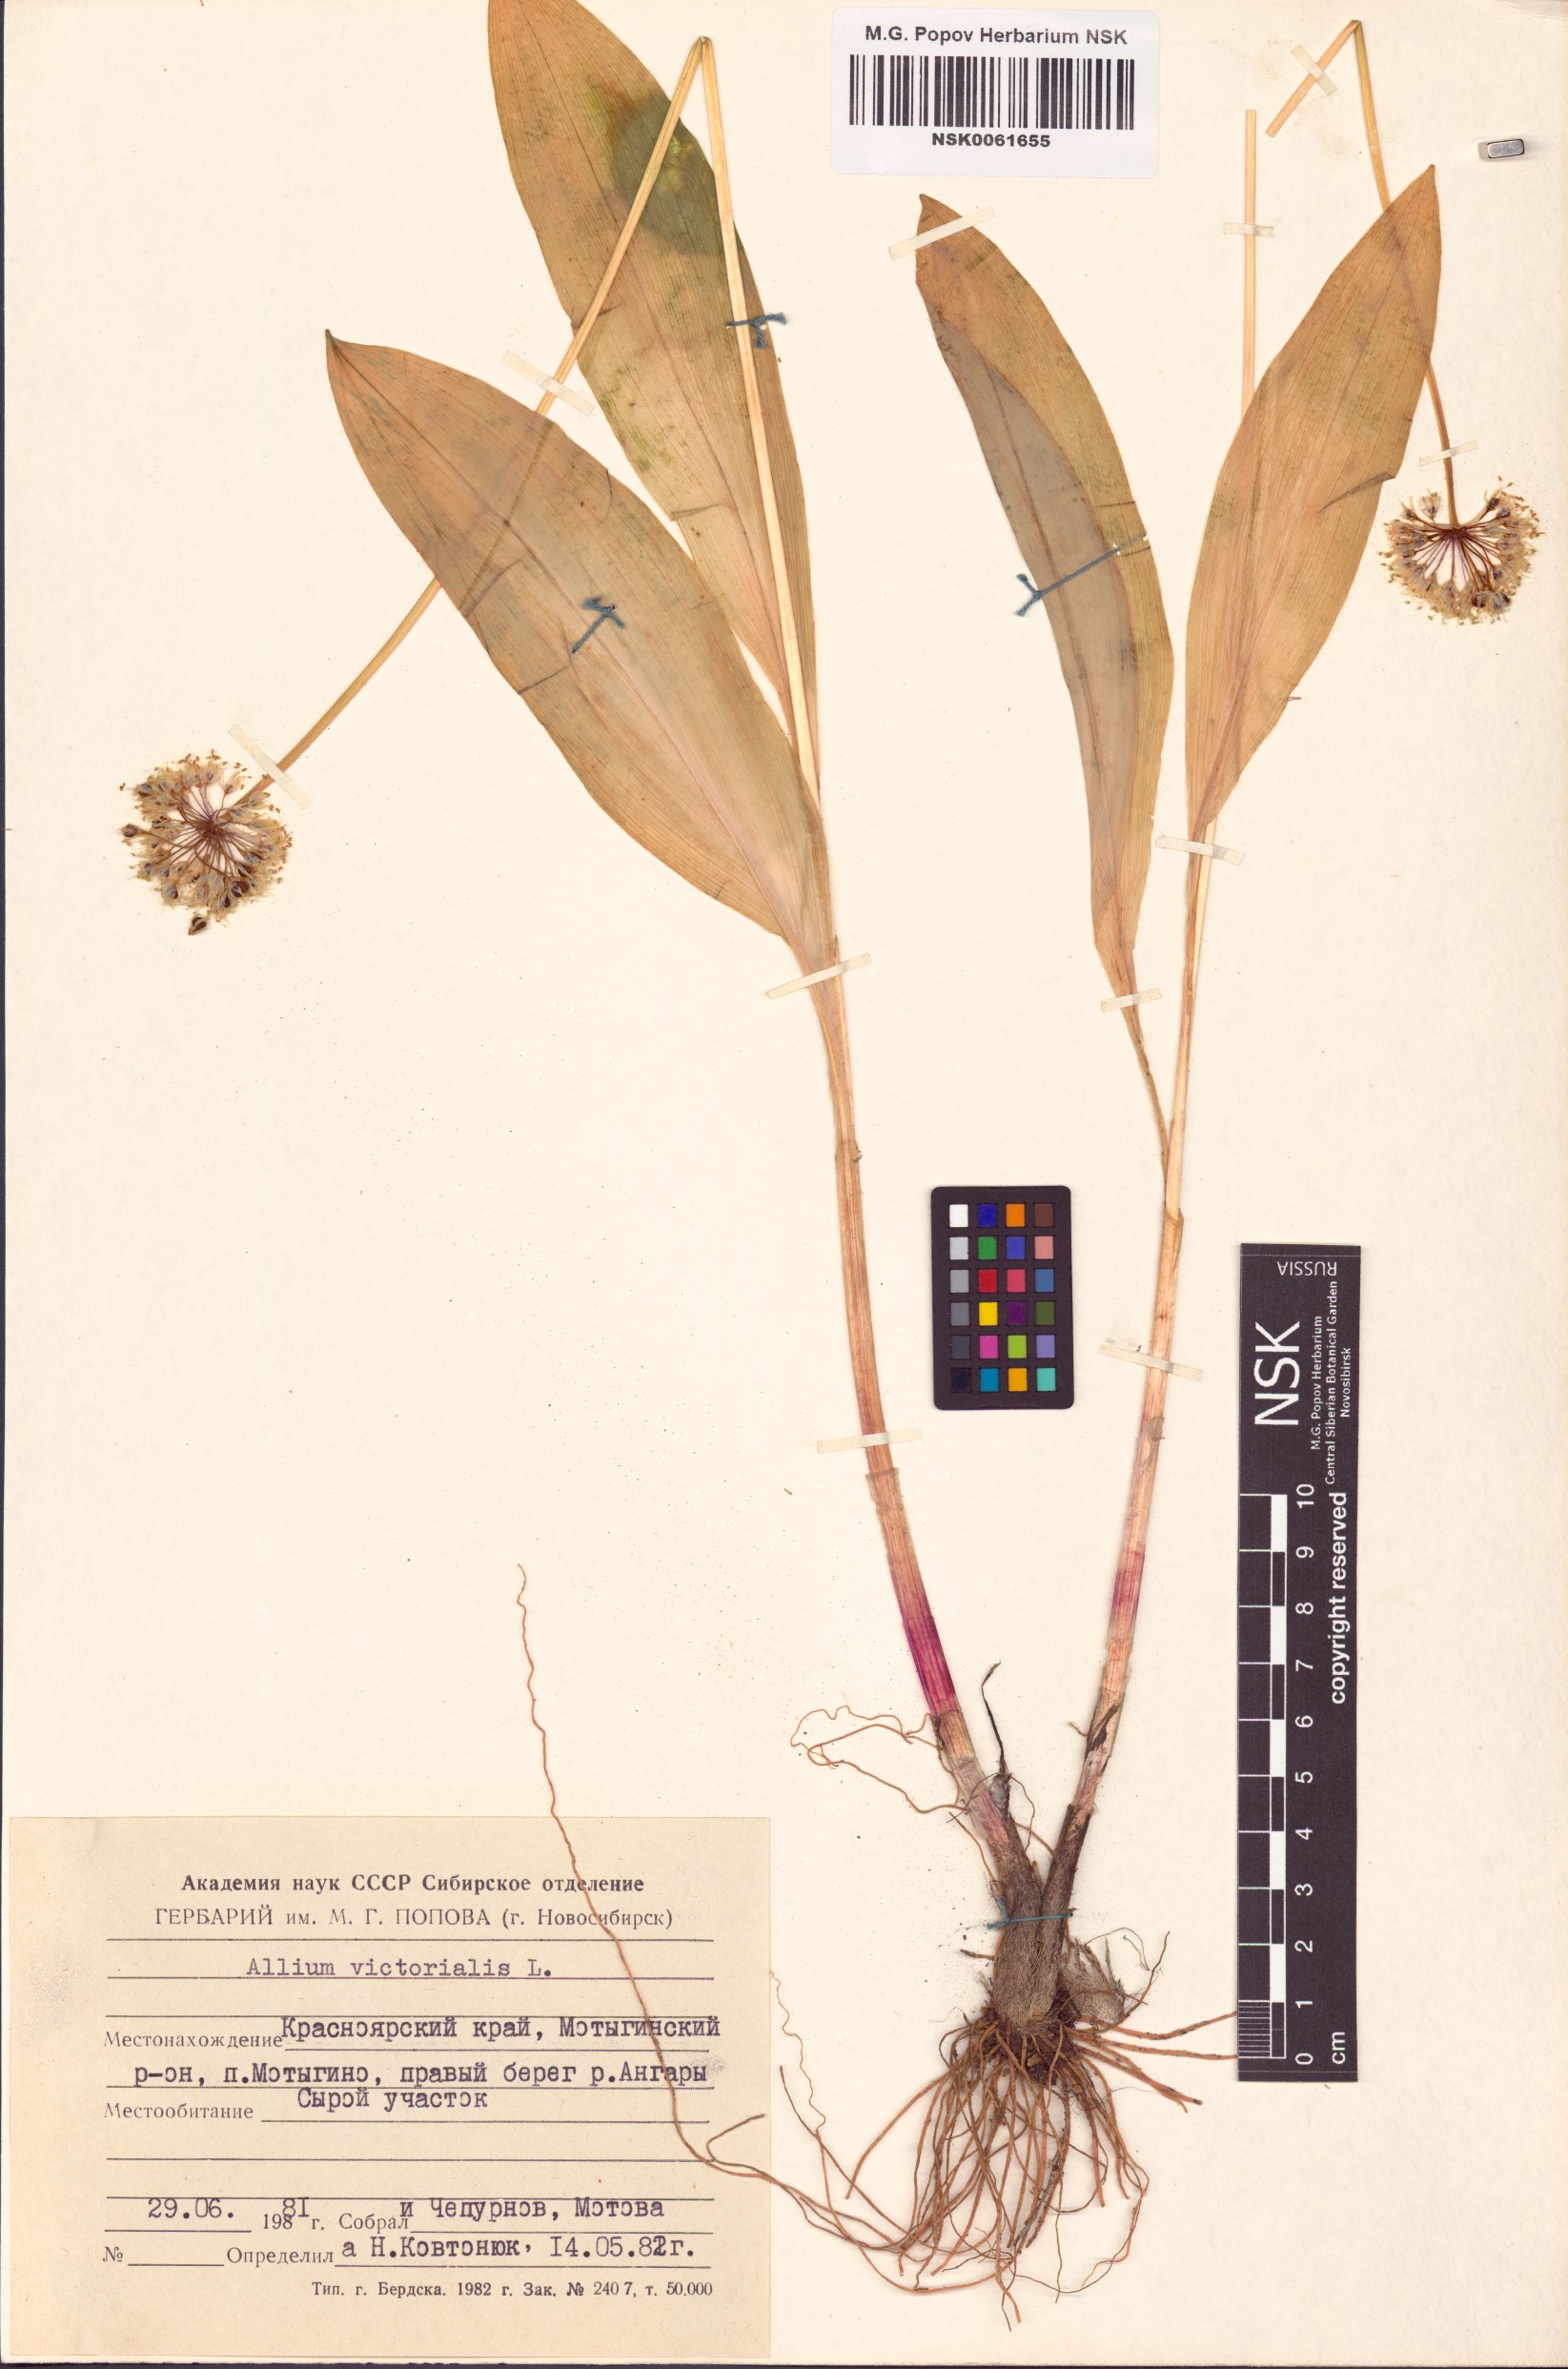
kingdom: Plantae
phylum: Tracheophyta
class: Liliopsida
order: Asparagales
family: Amaryllidaceae
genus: Allium
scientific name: Allium victorialis
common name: Alpine leek
